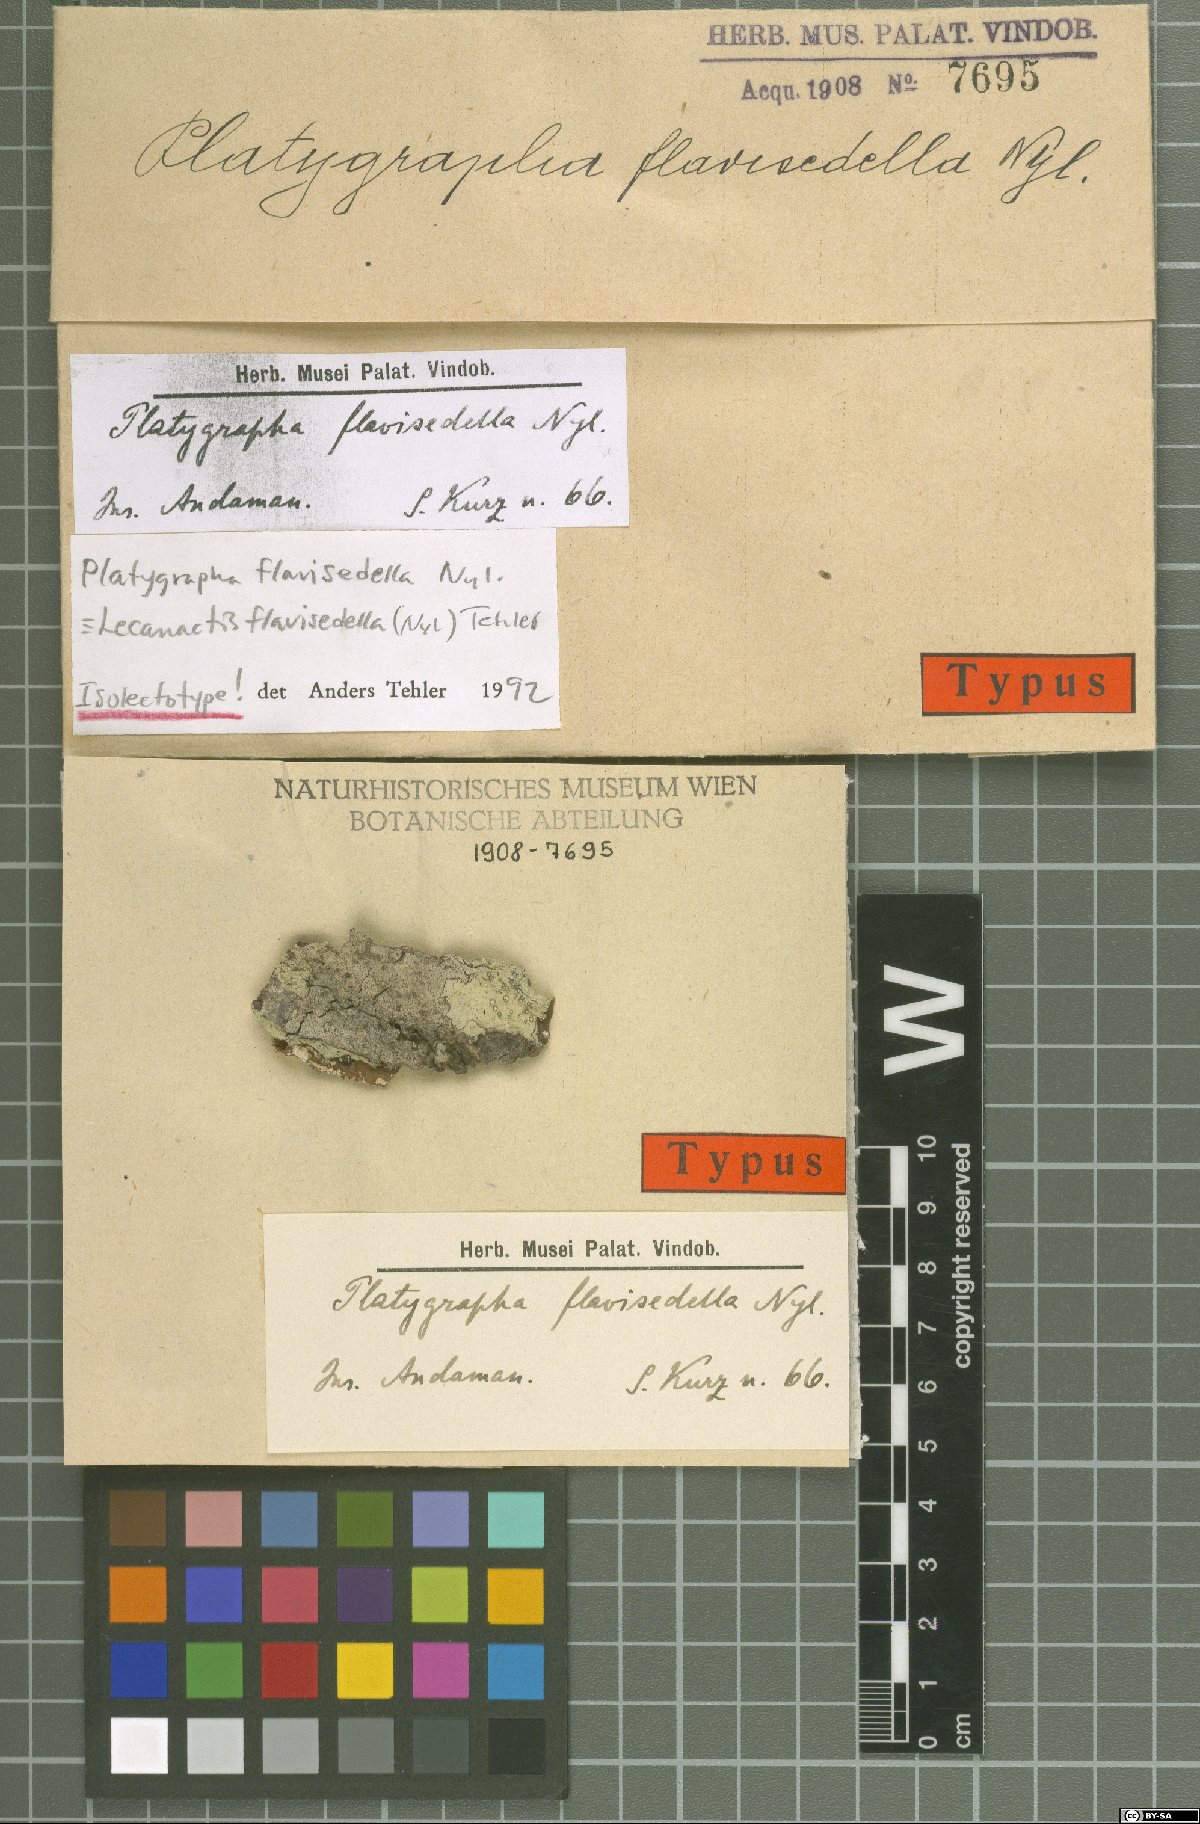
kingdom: Fungi
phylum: Ascomycota
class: Lecanoromycetes
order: Ostropales
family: Graphidaceae
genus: Platygrapha
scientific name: Platygrapha
